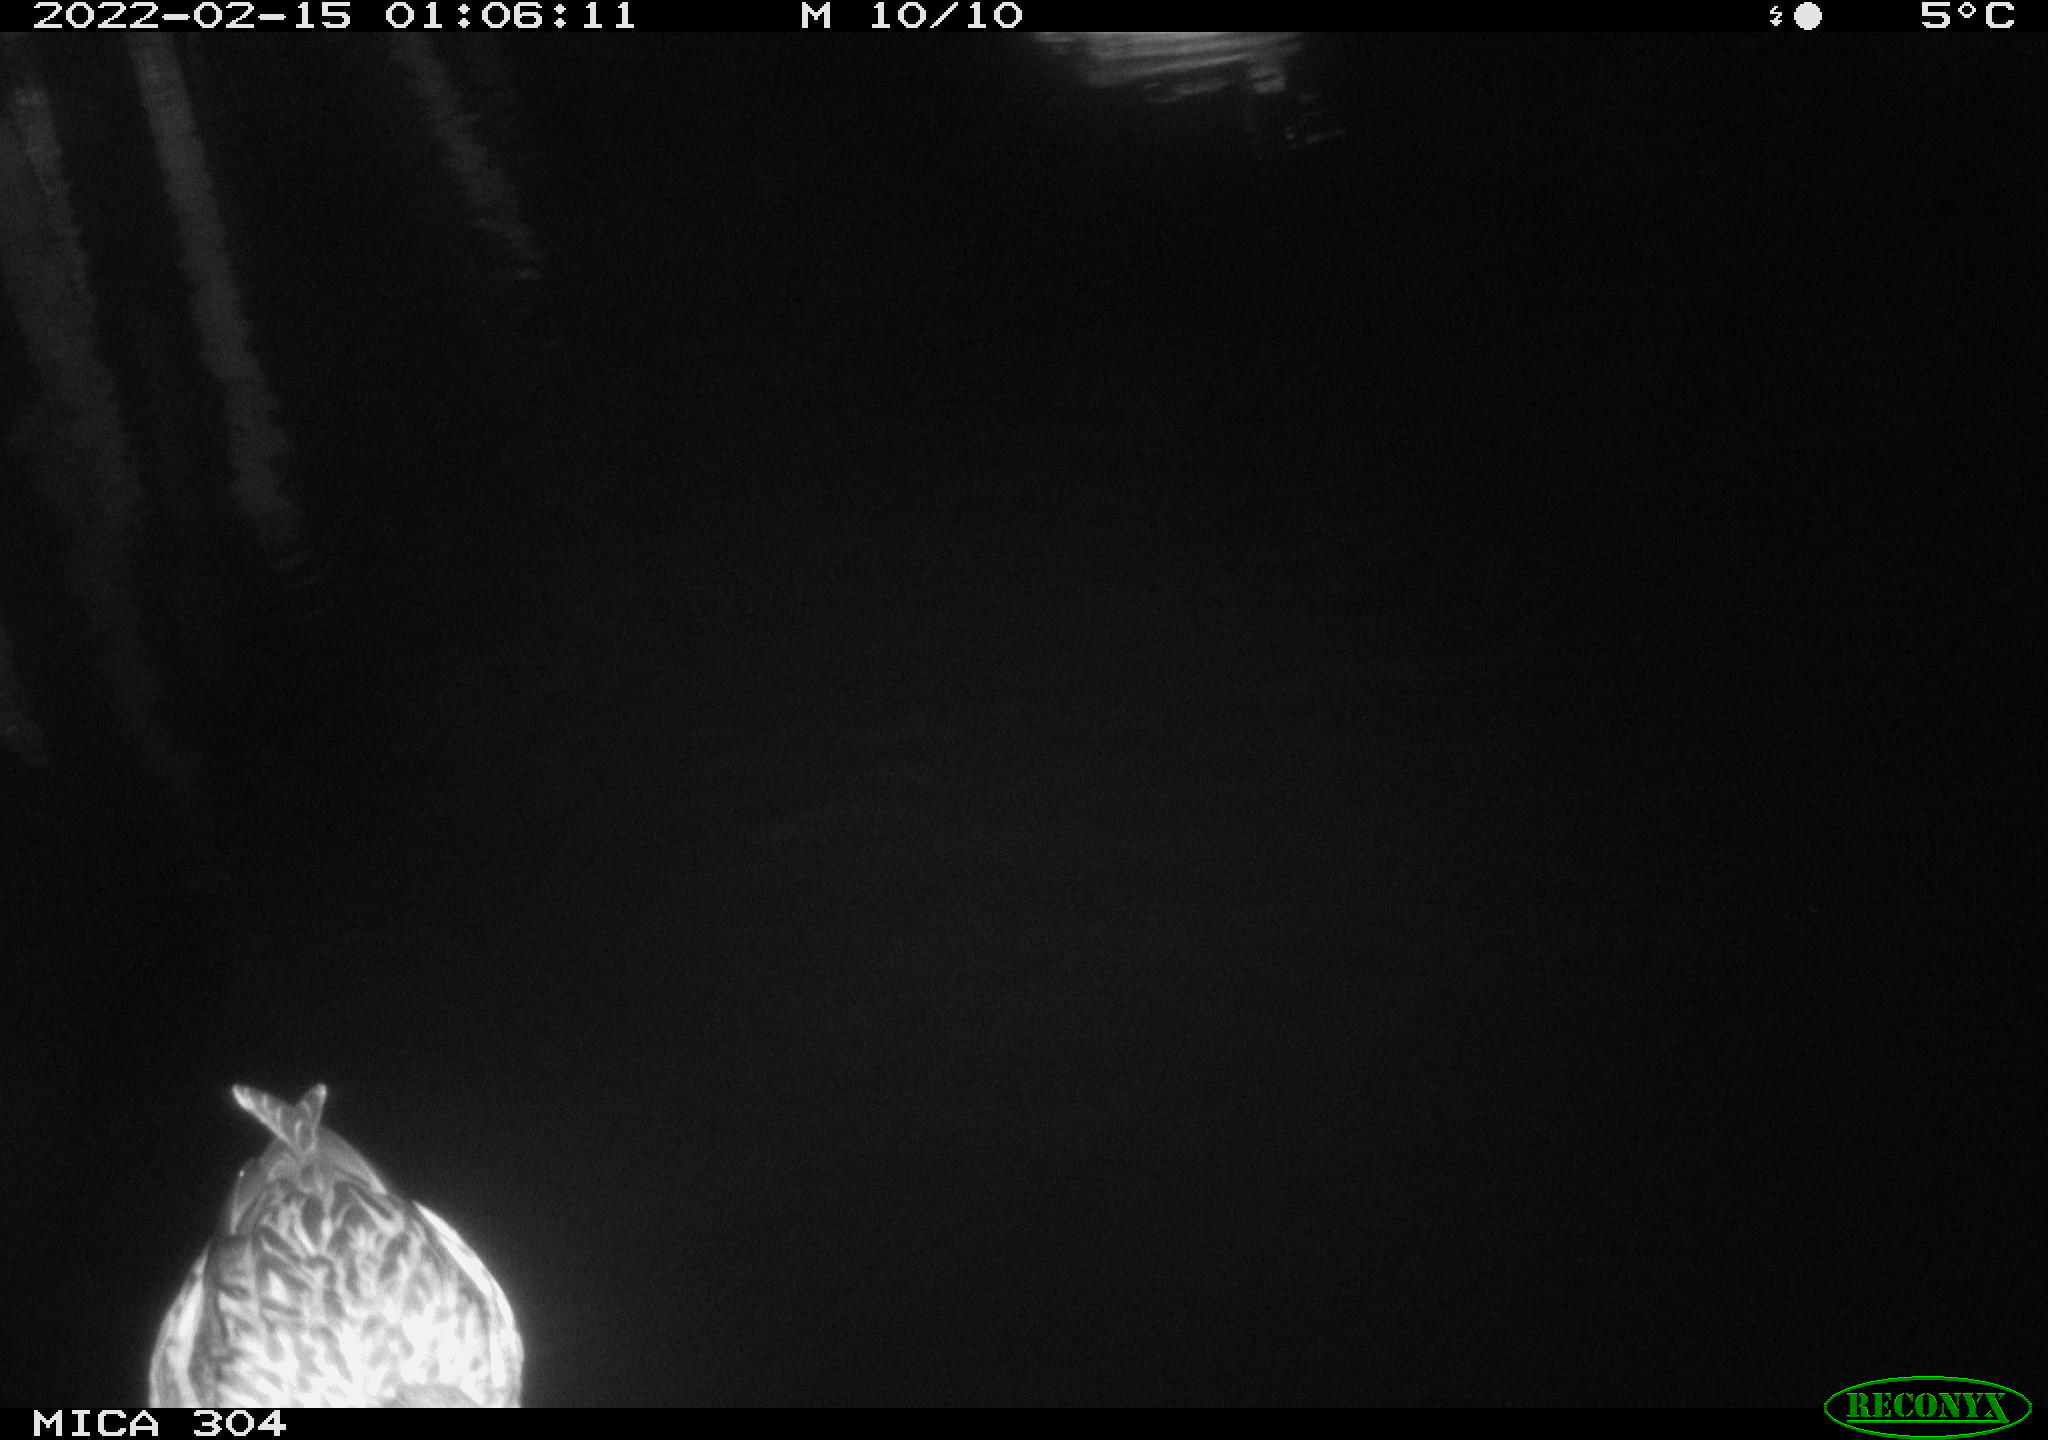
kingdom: Animalia
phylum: Chordata
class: Aves
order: Anseriformes
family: Anatidae
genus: Anas
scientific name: Anas platyrhynchos
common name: Mallard
